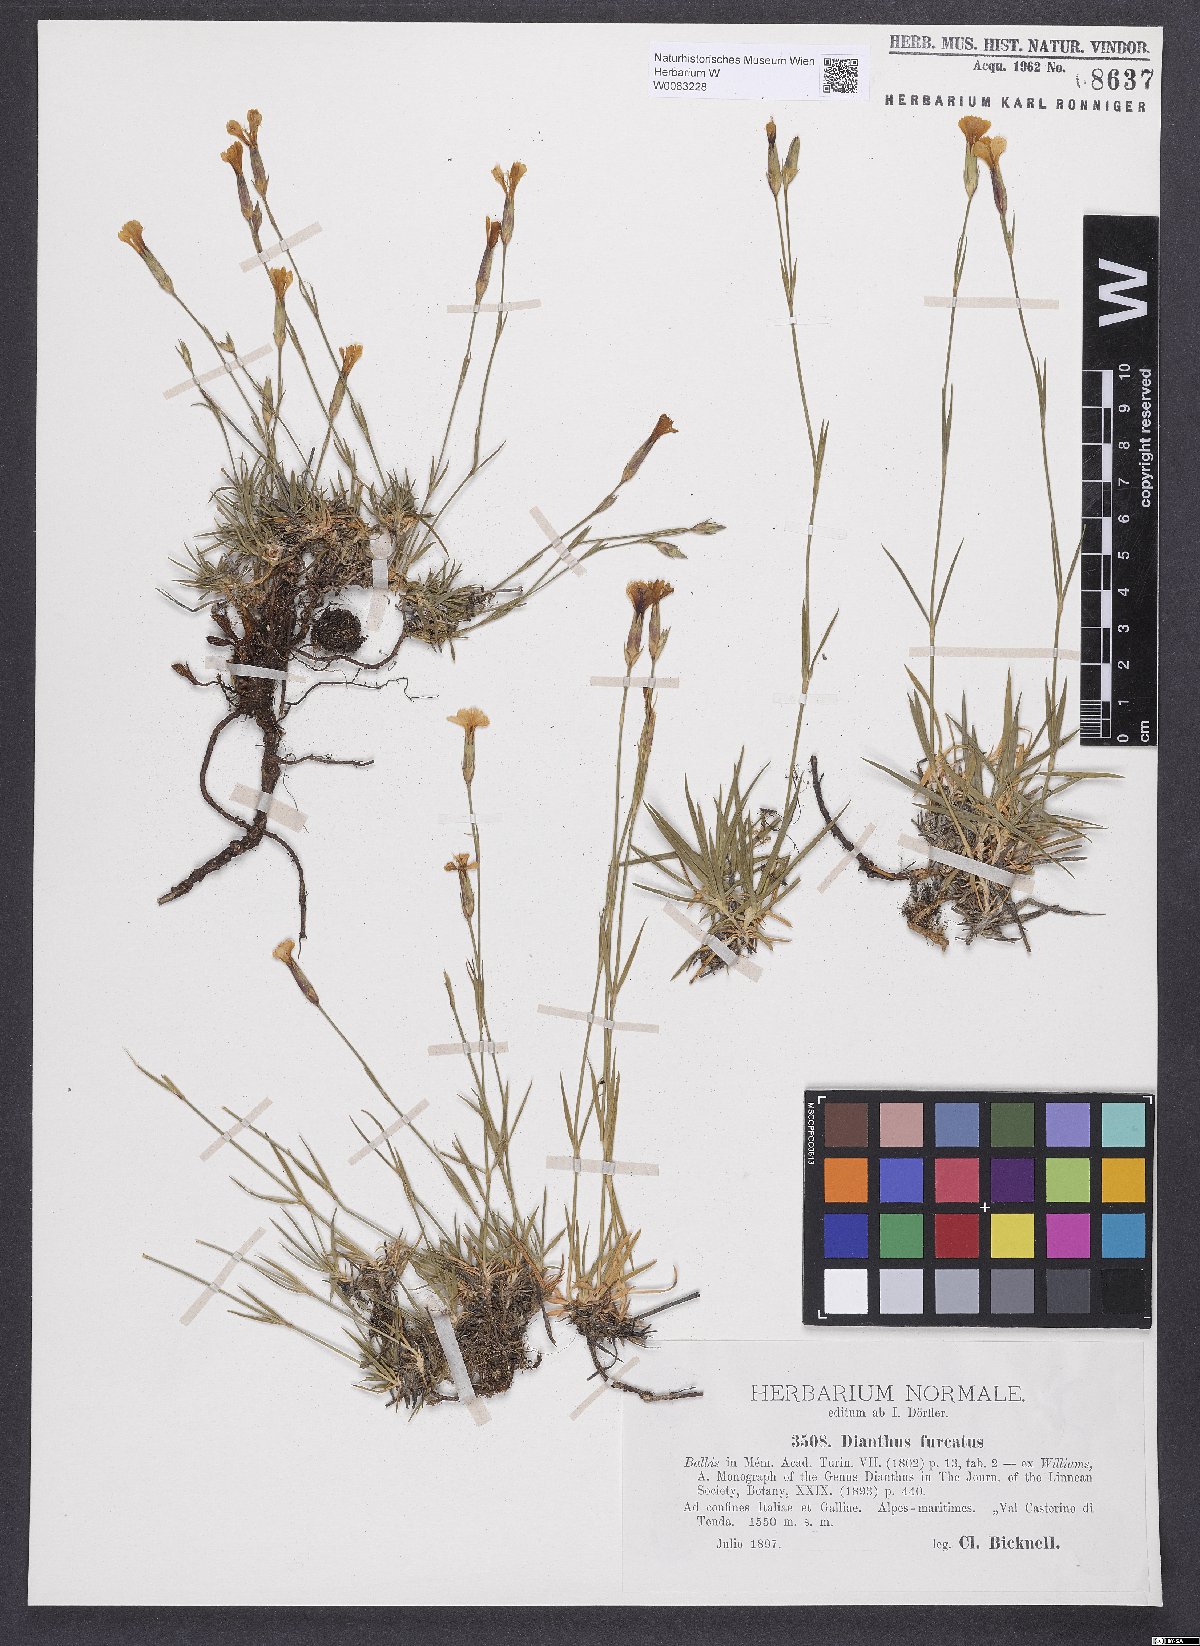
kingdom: Plantae
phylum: Tracheophyta
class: Magnoliopsida
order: Caryophyllales
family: Caryophyllaceae
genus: Dianthus
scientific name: Dianthus furcatus
